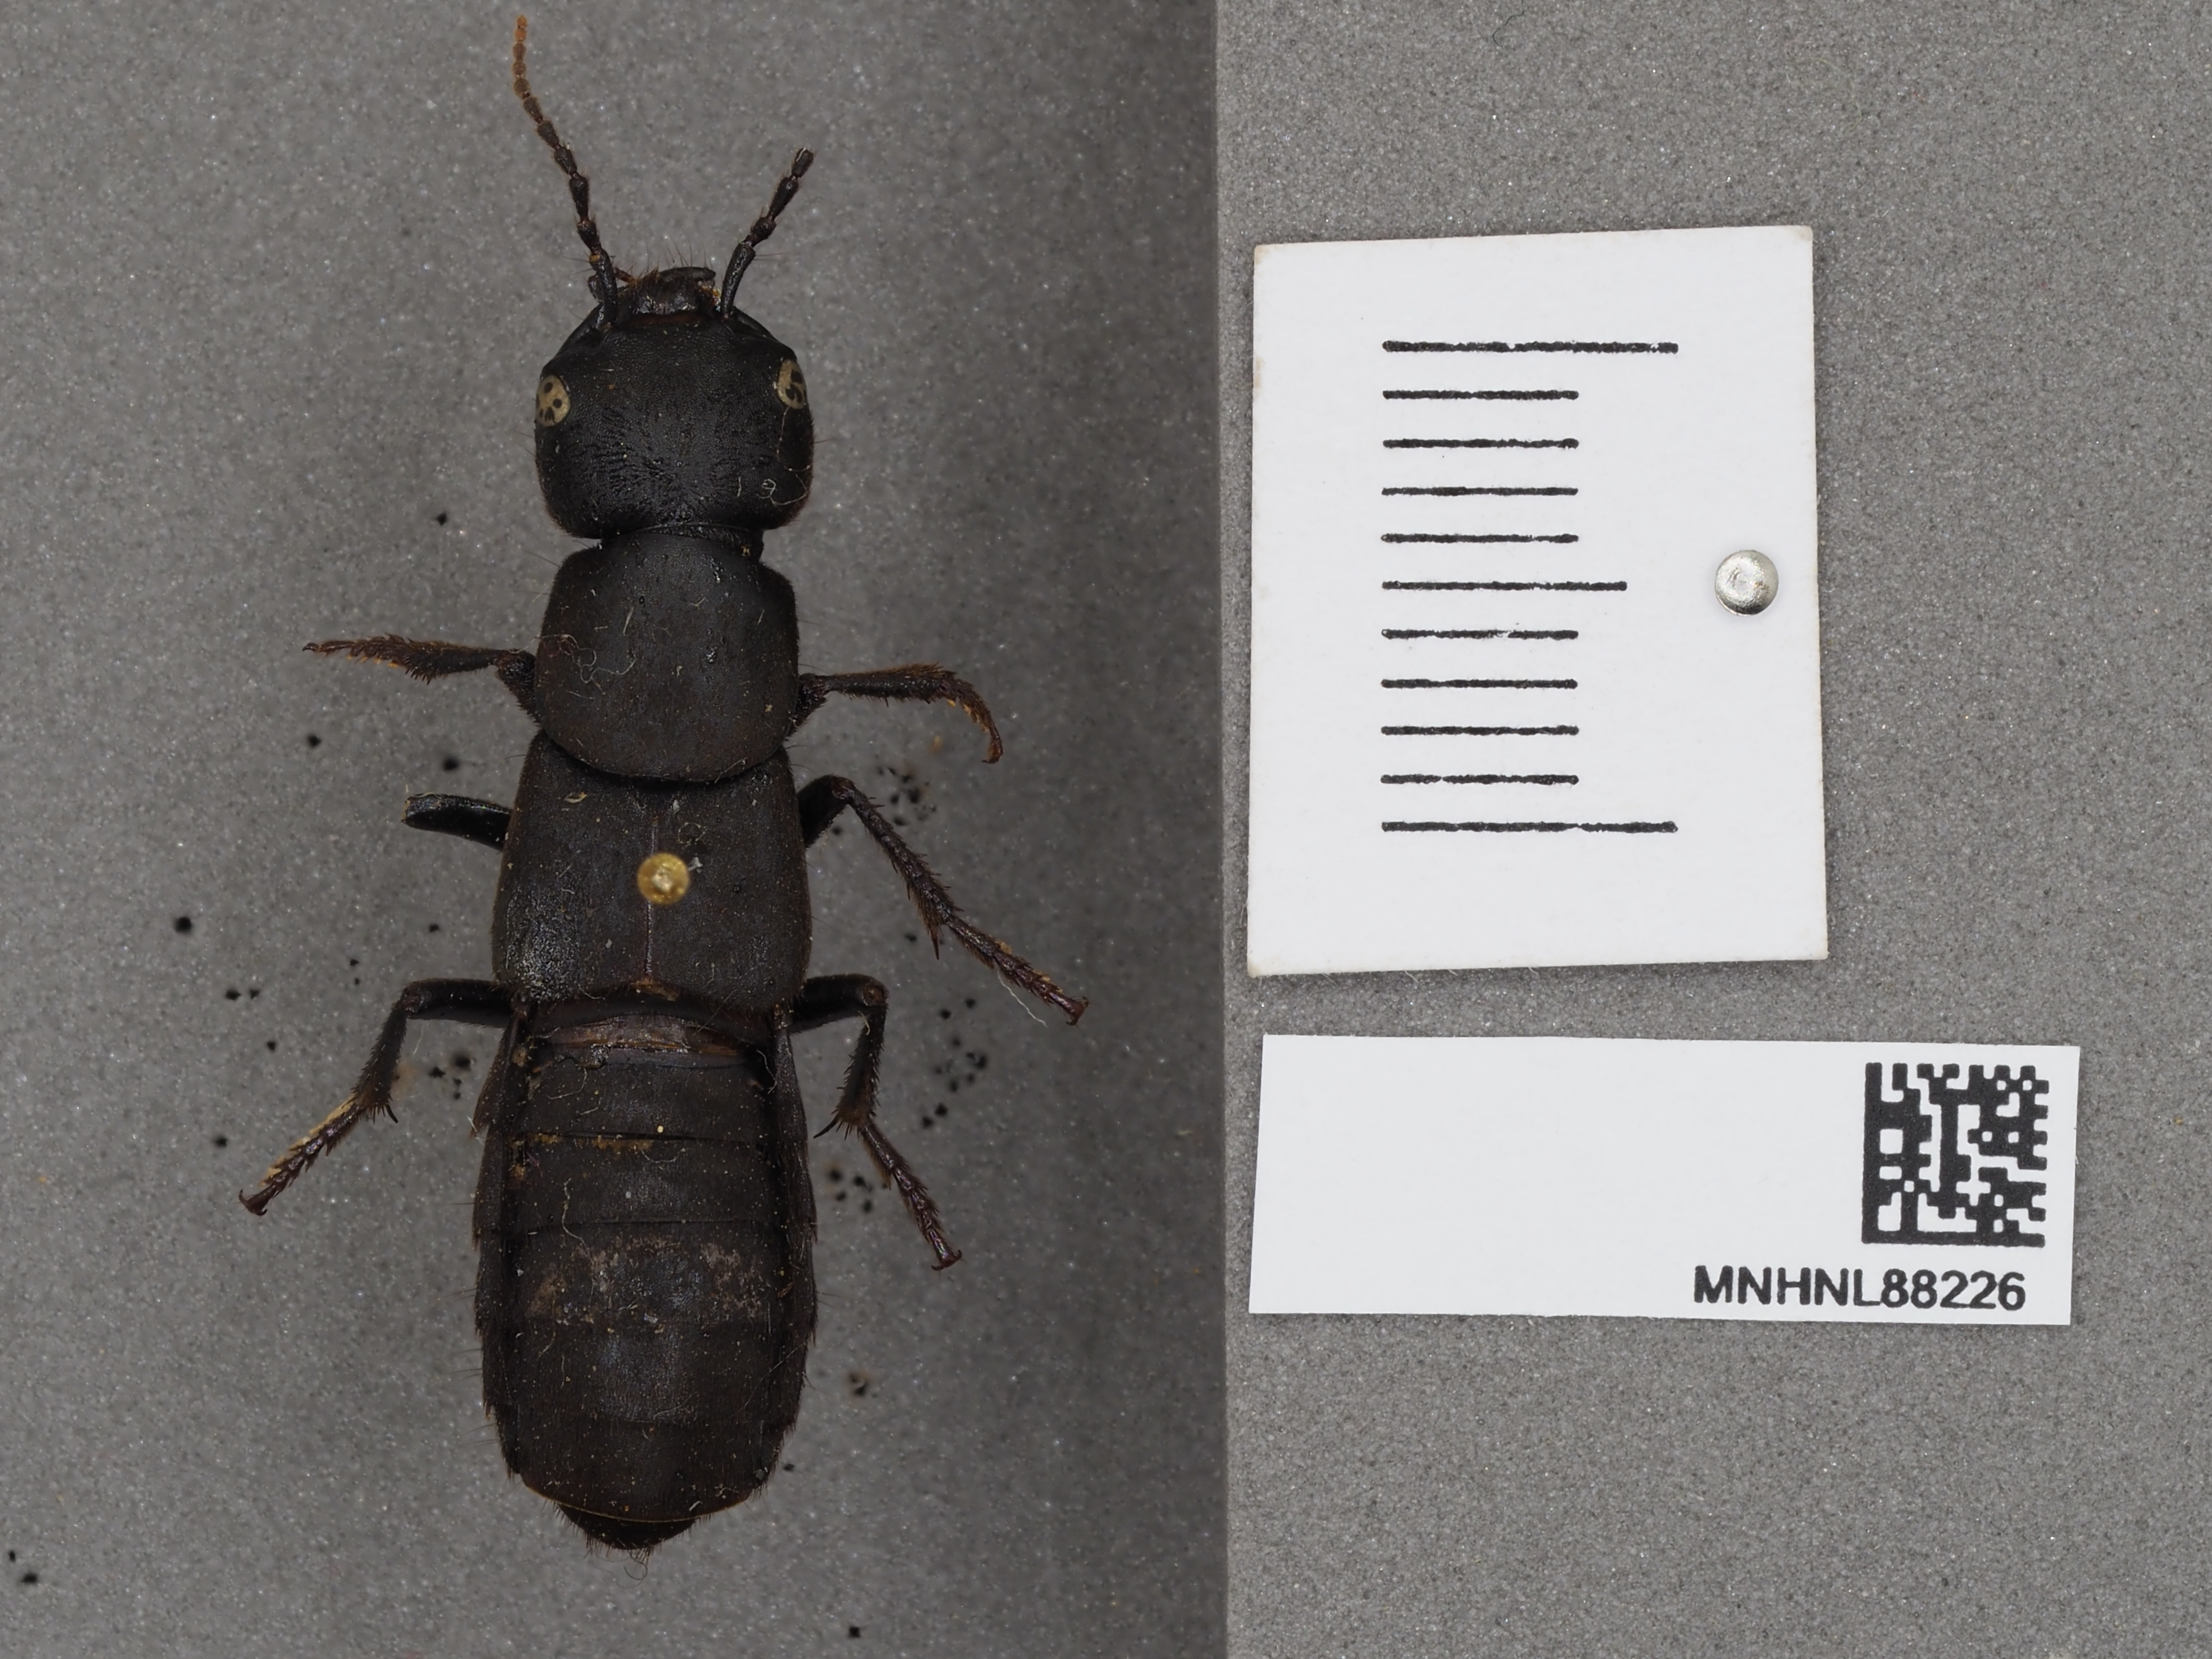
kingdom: Animalia
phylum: Arthropoda
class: Insecta
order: Coleoptera
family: Staphylinidae
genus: Ocypus
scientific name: Ocypus olens
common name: Devil's coach-horse
